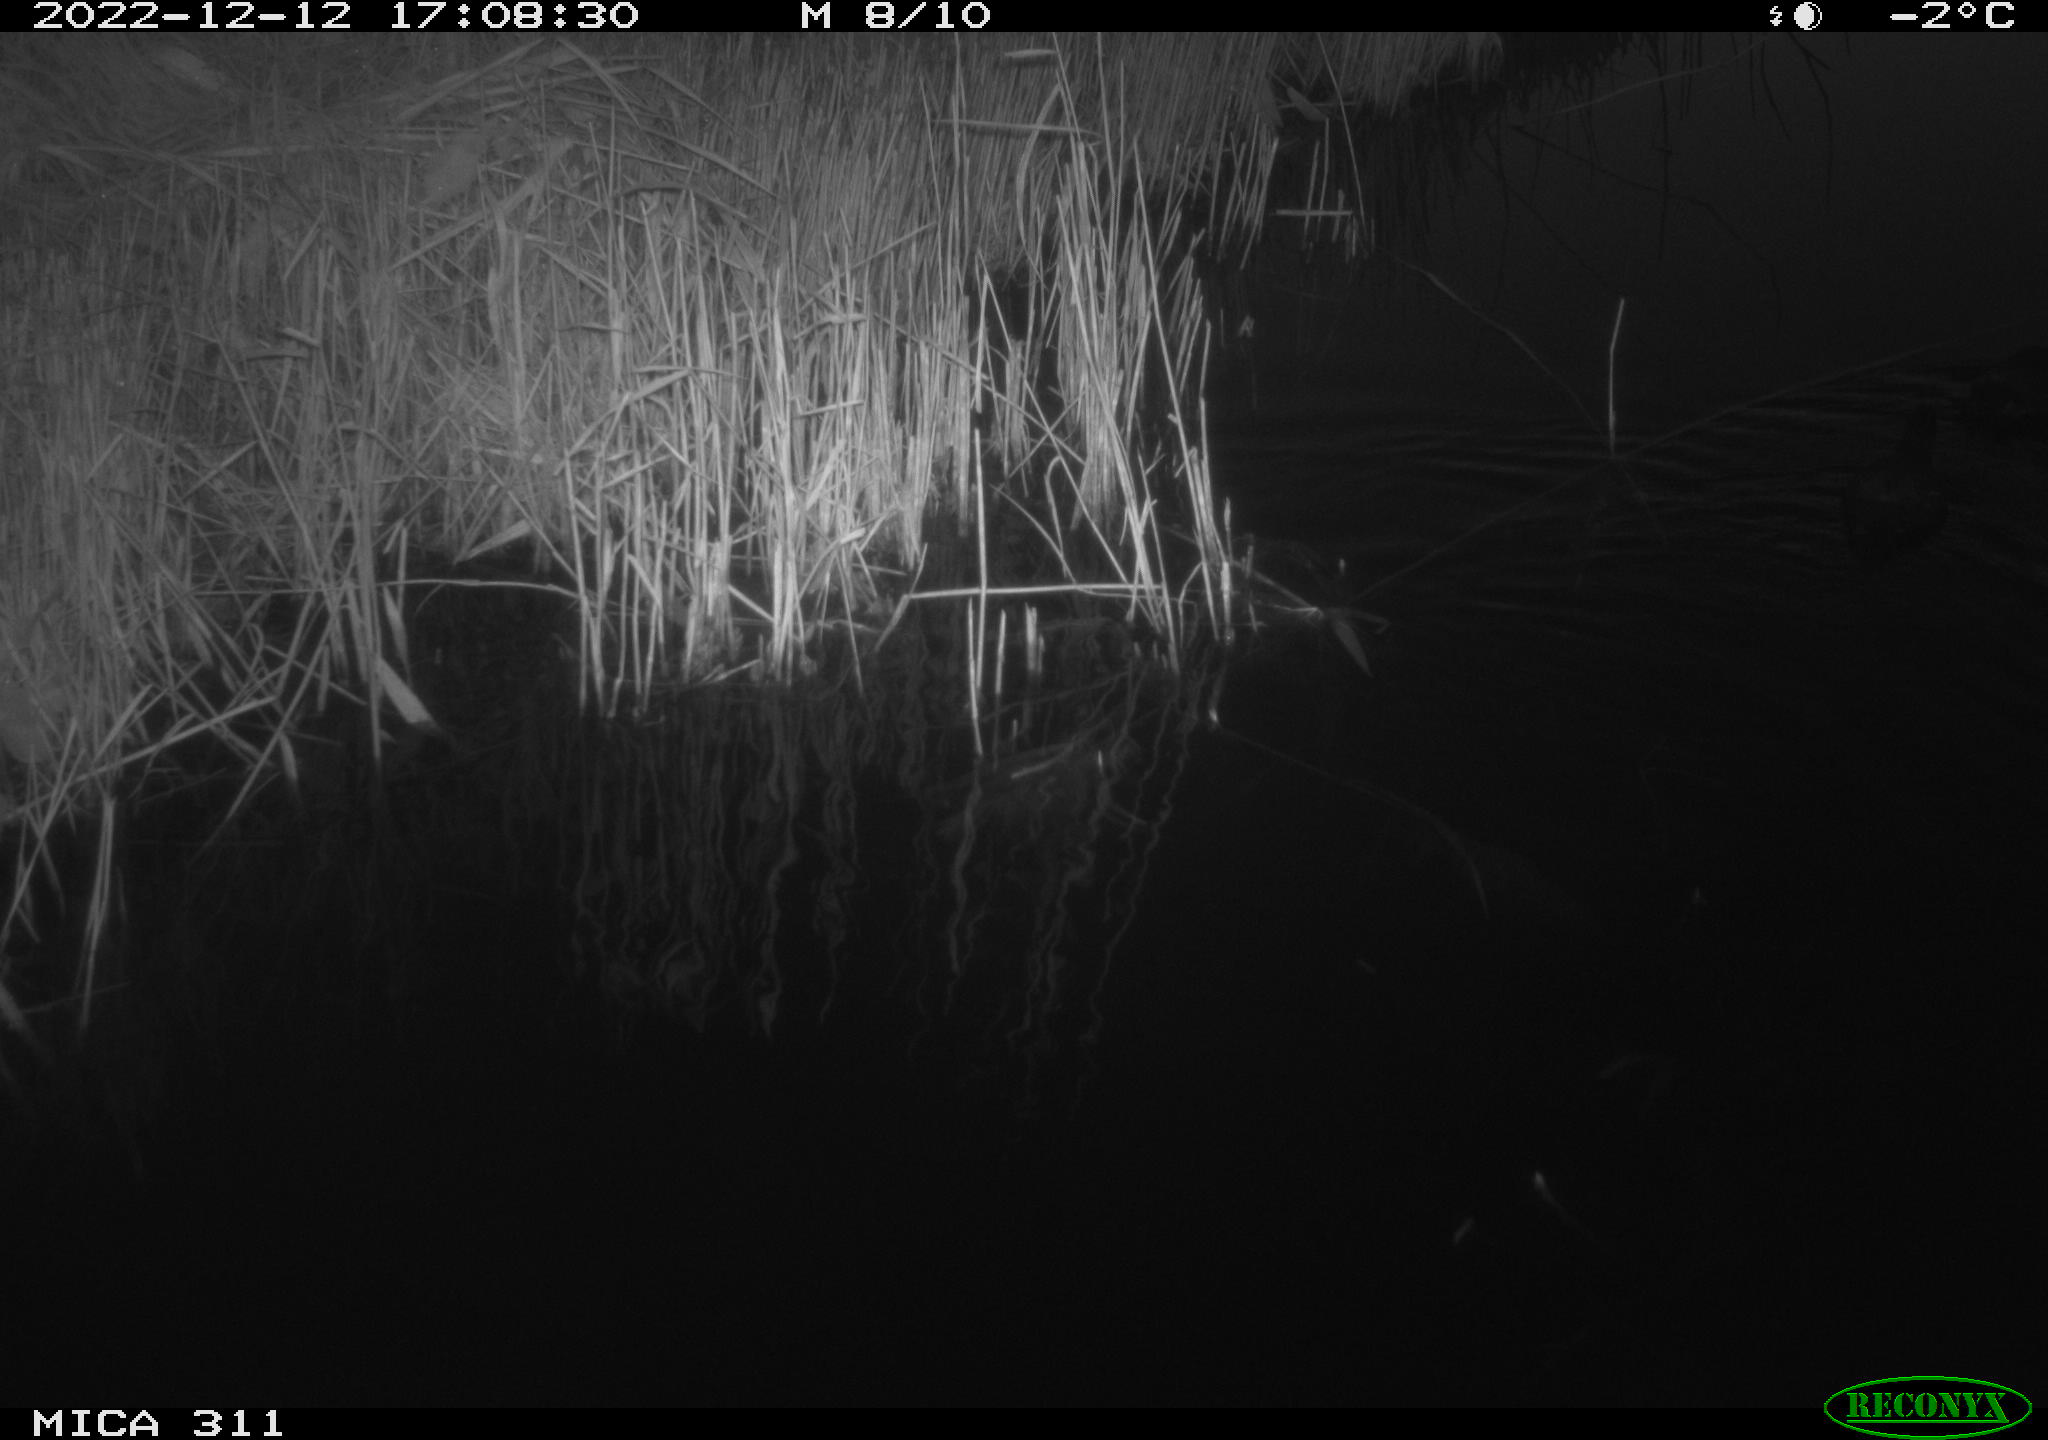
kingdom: Animalia
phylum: Chordata
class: Aves
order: Gruiformes
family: Rallidae
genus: Gallinula
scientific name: Gallinula chloropus
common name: Common moorhen
